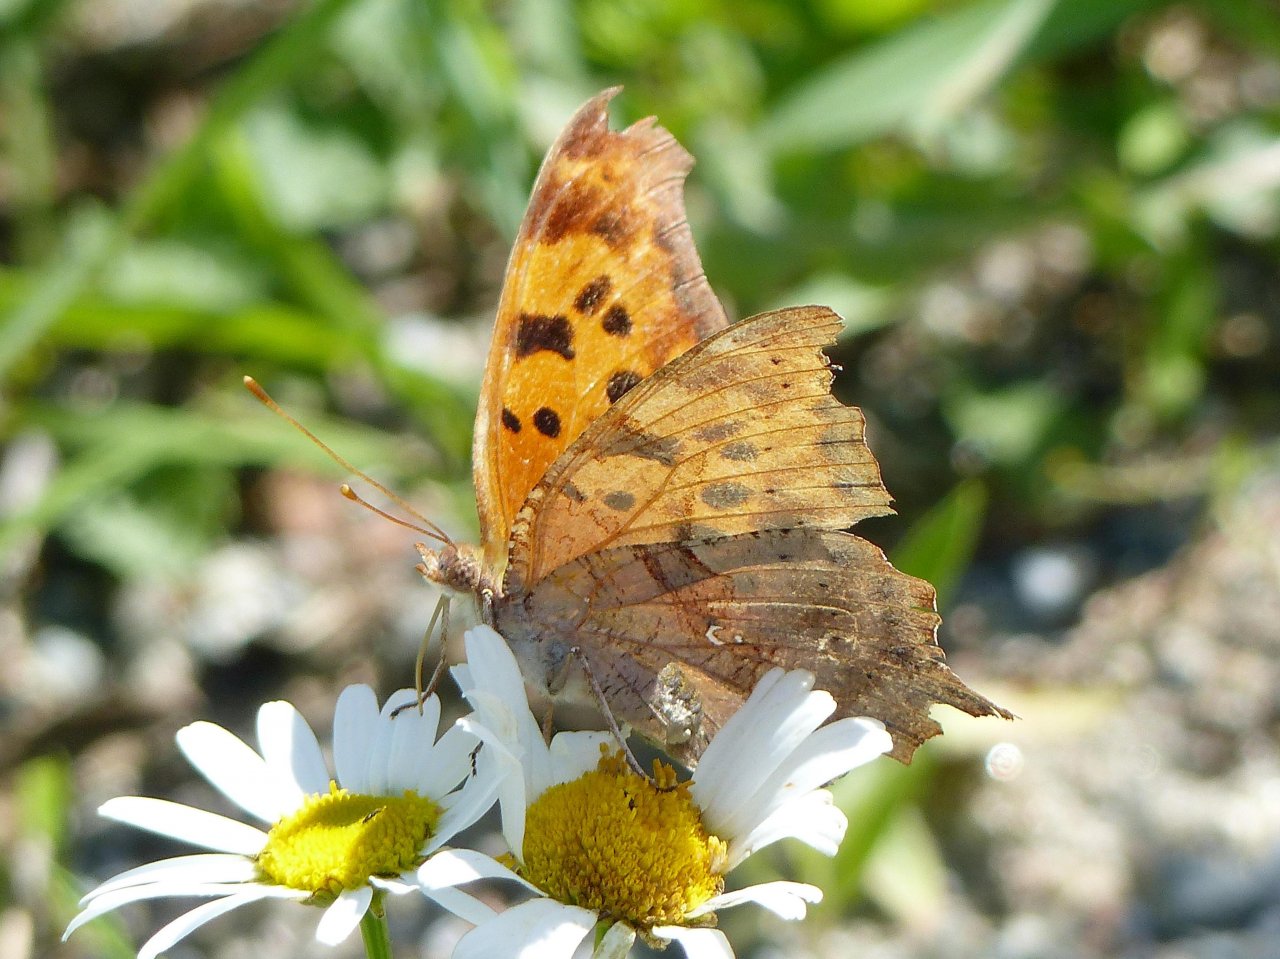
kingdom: Animalia
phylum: Arthropoda
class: Insecta
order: Lepidoptera
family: Nymphalidae
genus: Polygonia
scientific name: Polygonia interrogationis
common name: Question Mark
